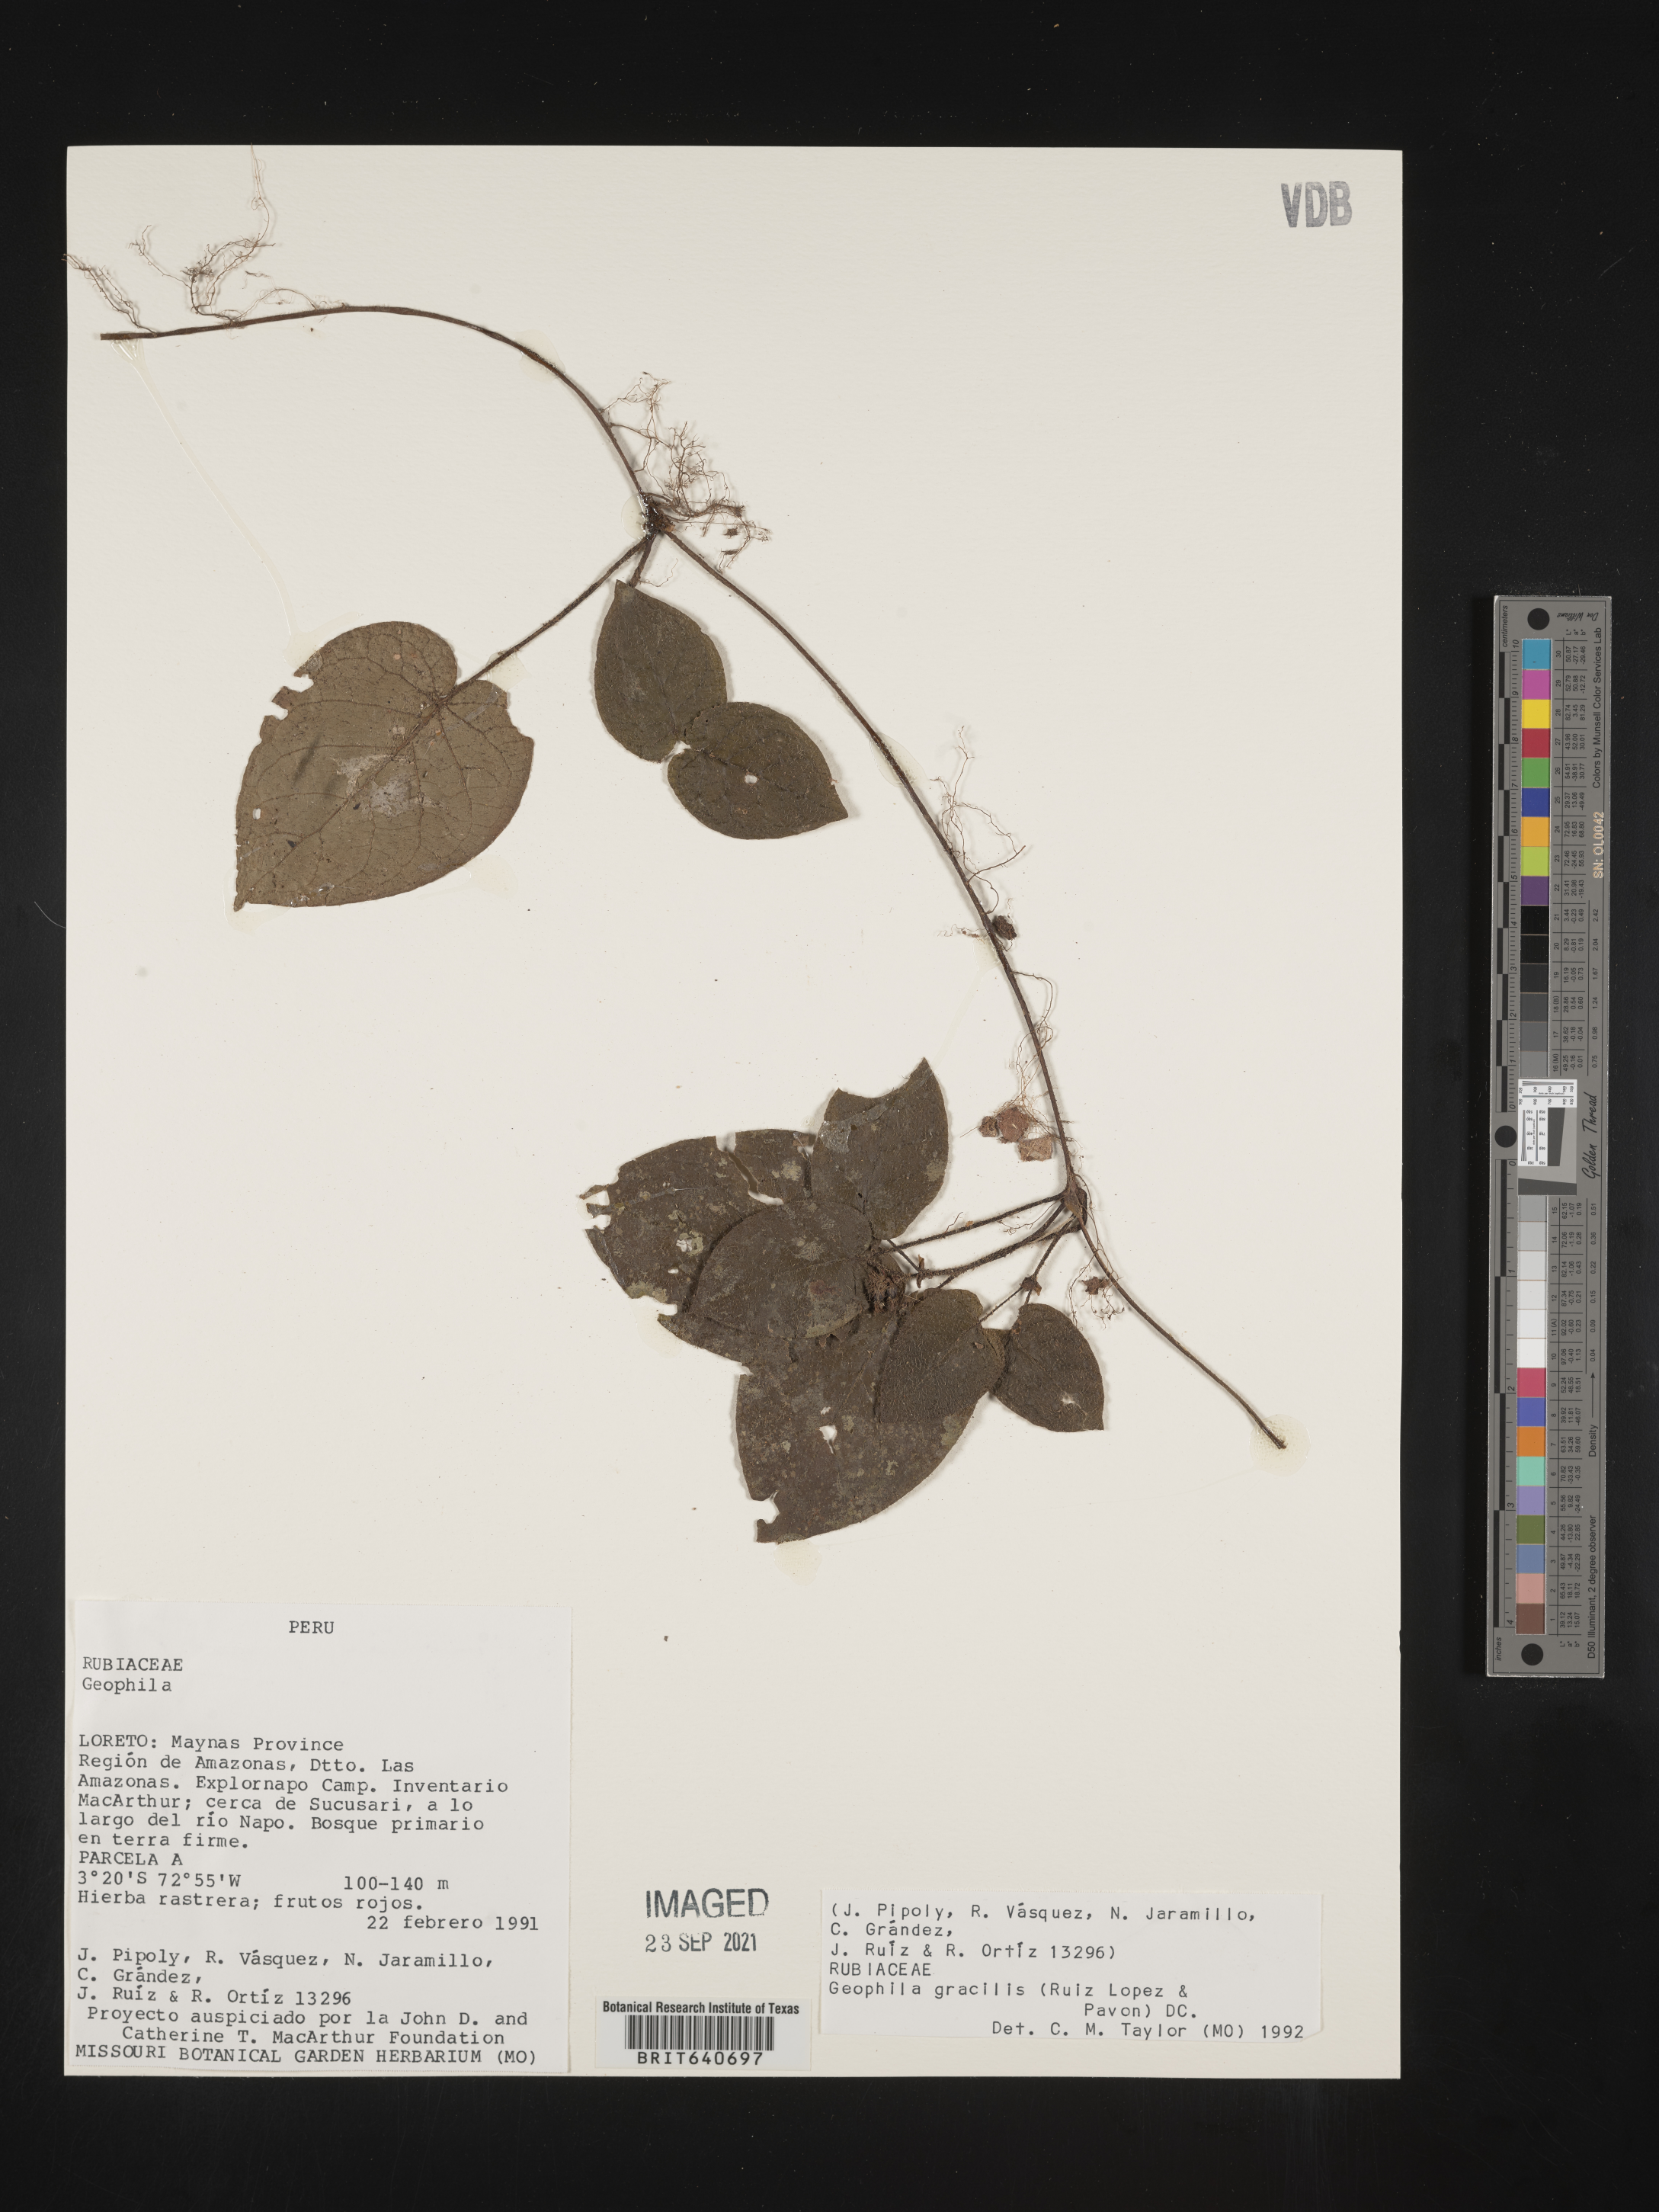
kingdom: Plantae
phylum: Tracheophyta
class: Magnoliopsida
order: Gentianales
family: Rubiaceae
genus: Geophila
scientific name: Geophila
